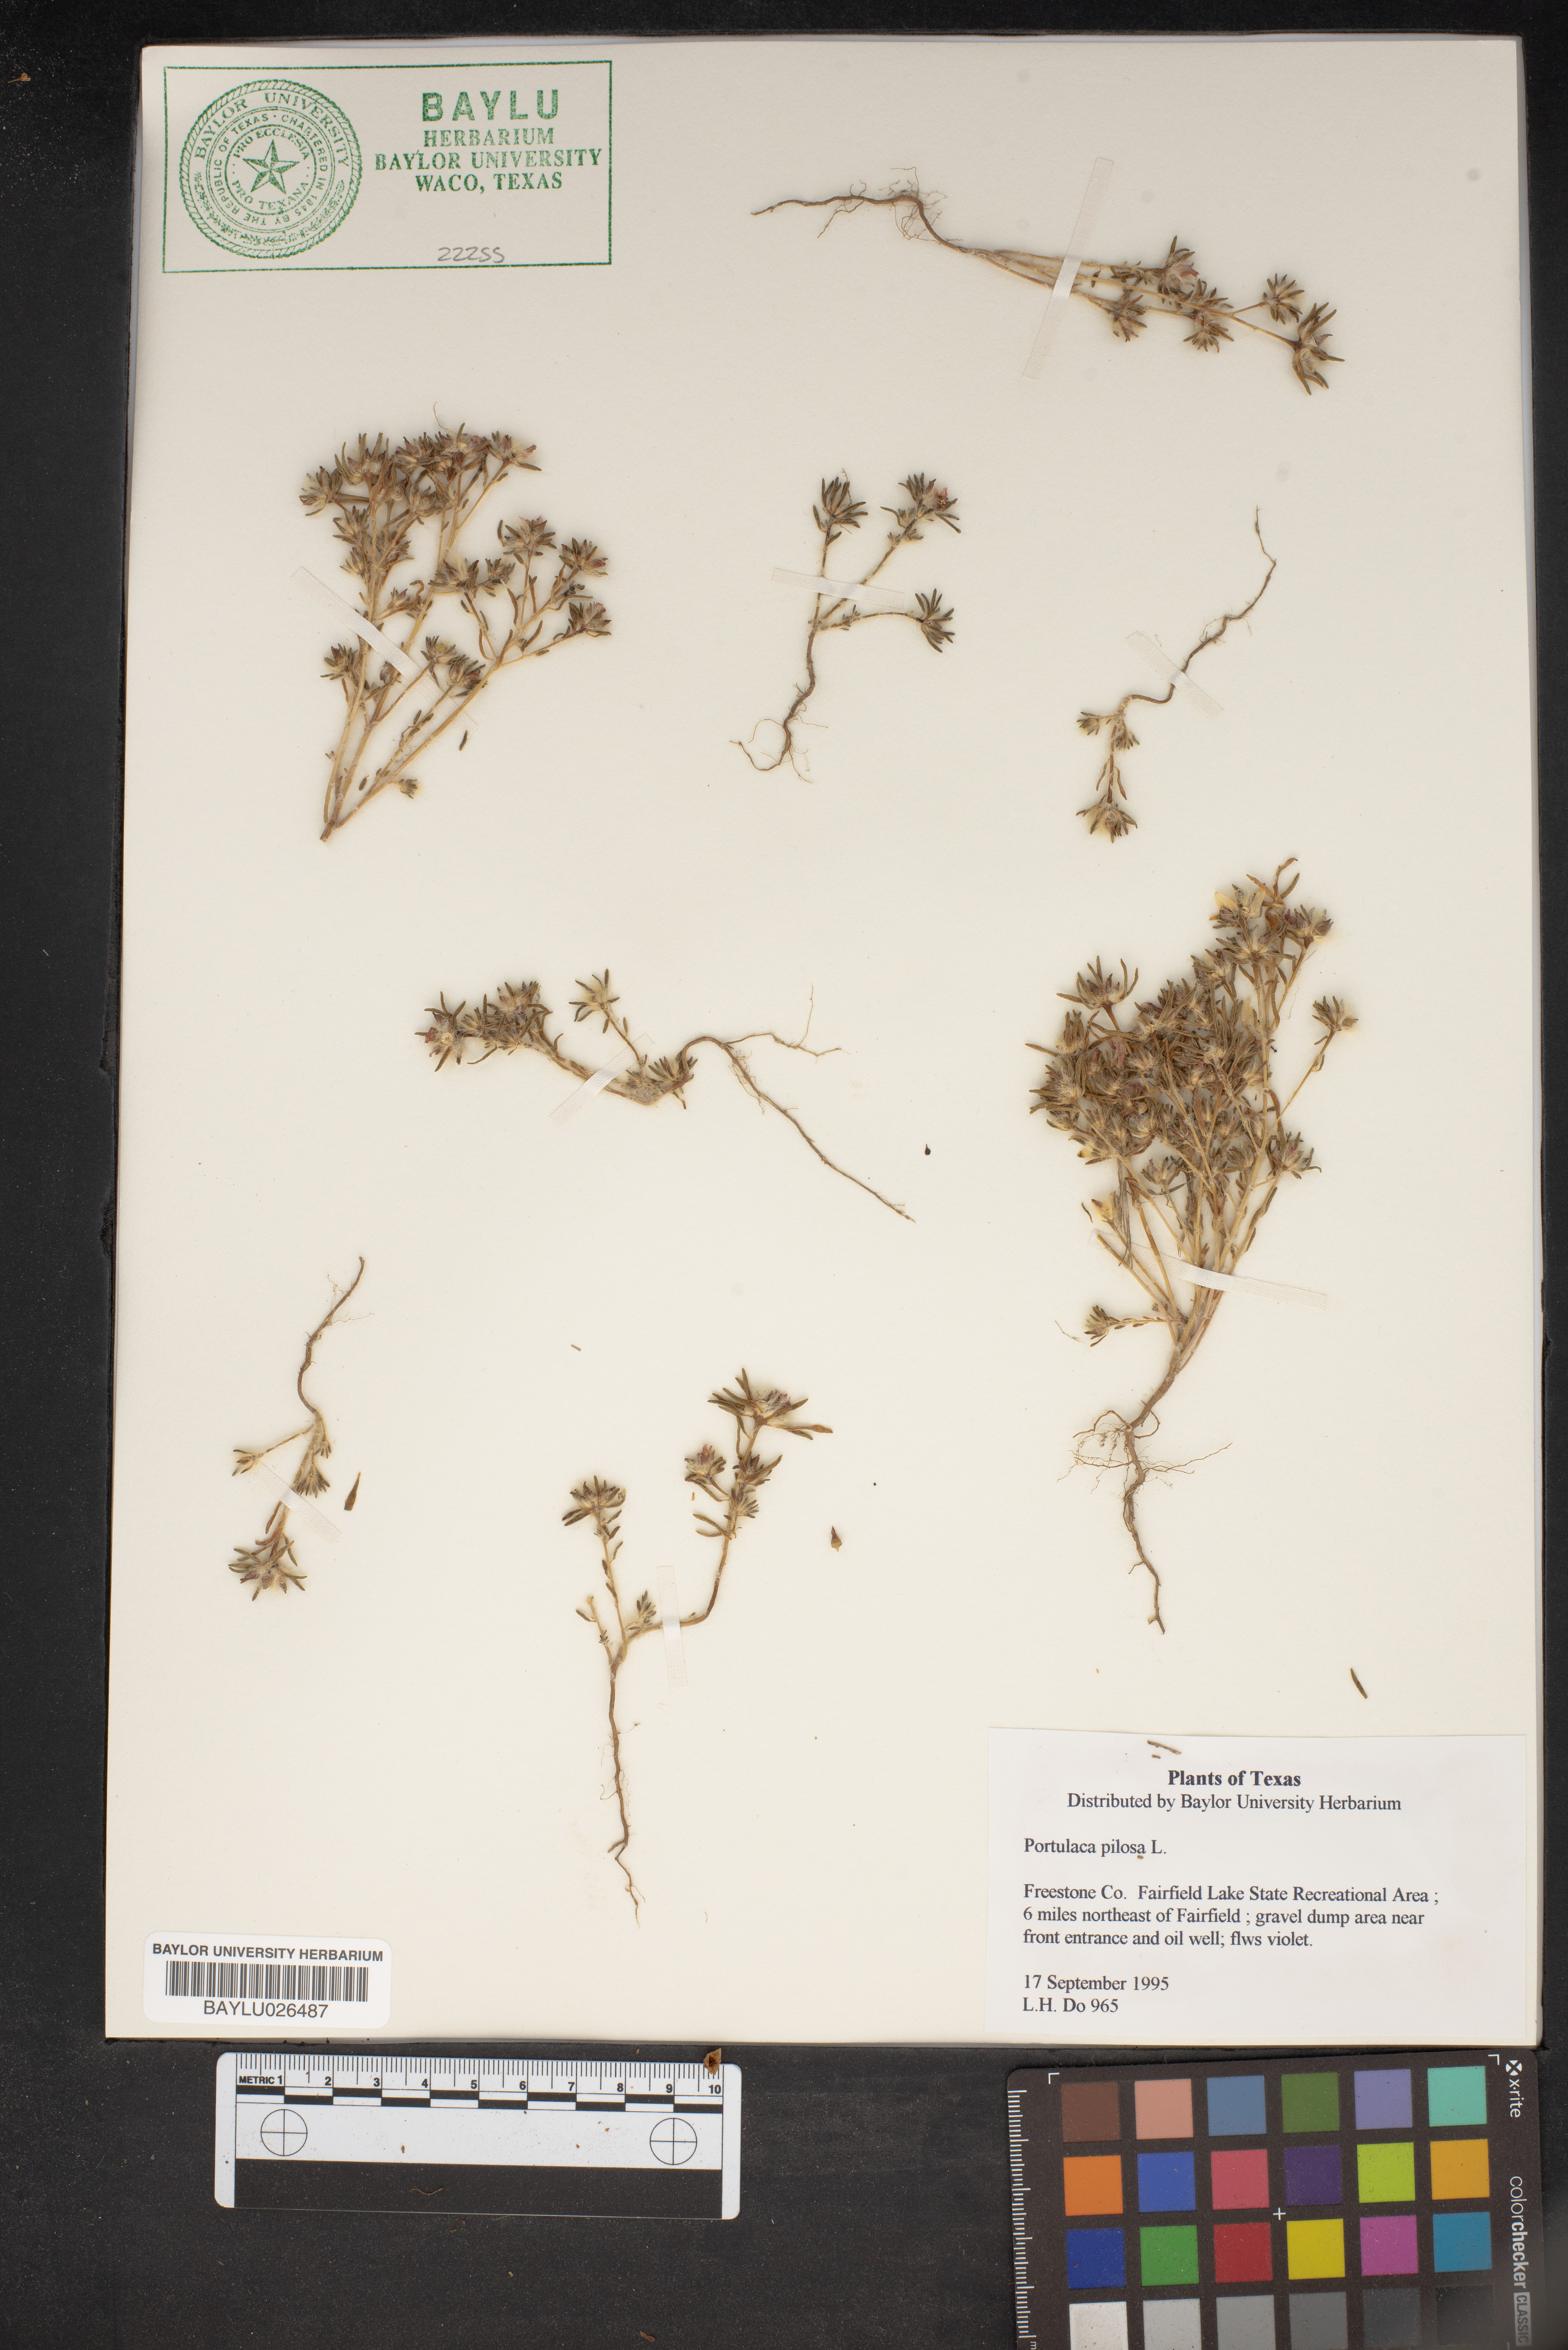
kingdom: Plantae
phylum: Tracheophyta
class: Magnoliopsida
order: Caryophyllales
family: Portulacaceae
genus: Portulaca
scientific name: Portulaca pilosa
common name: Kiss me quick
